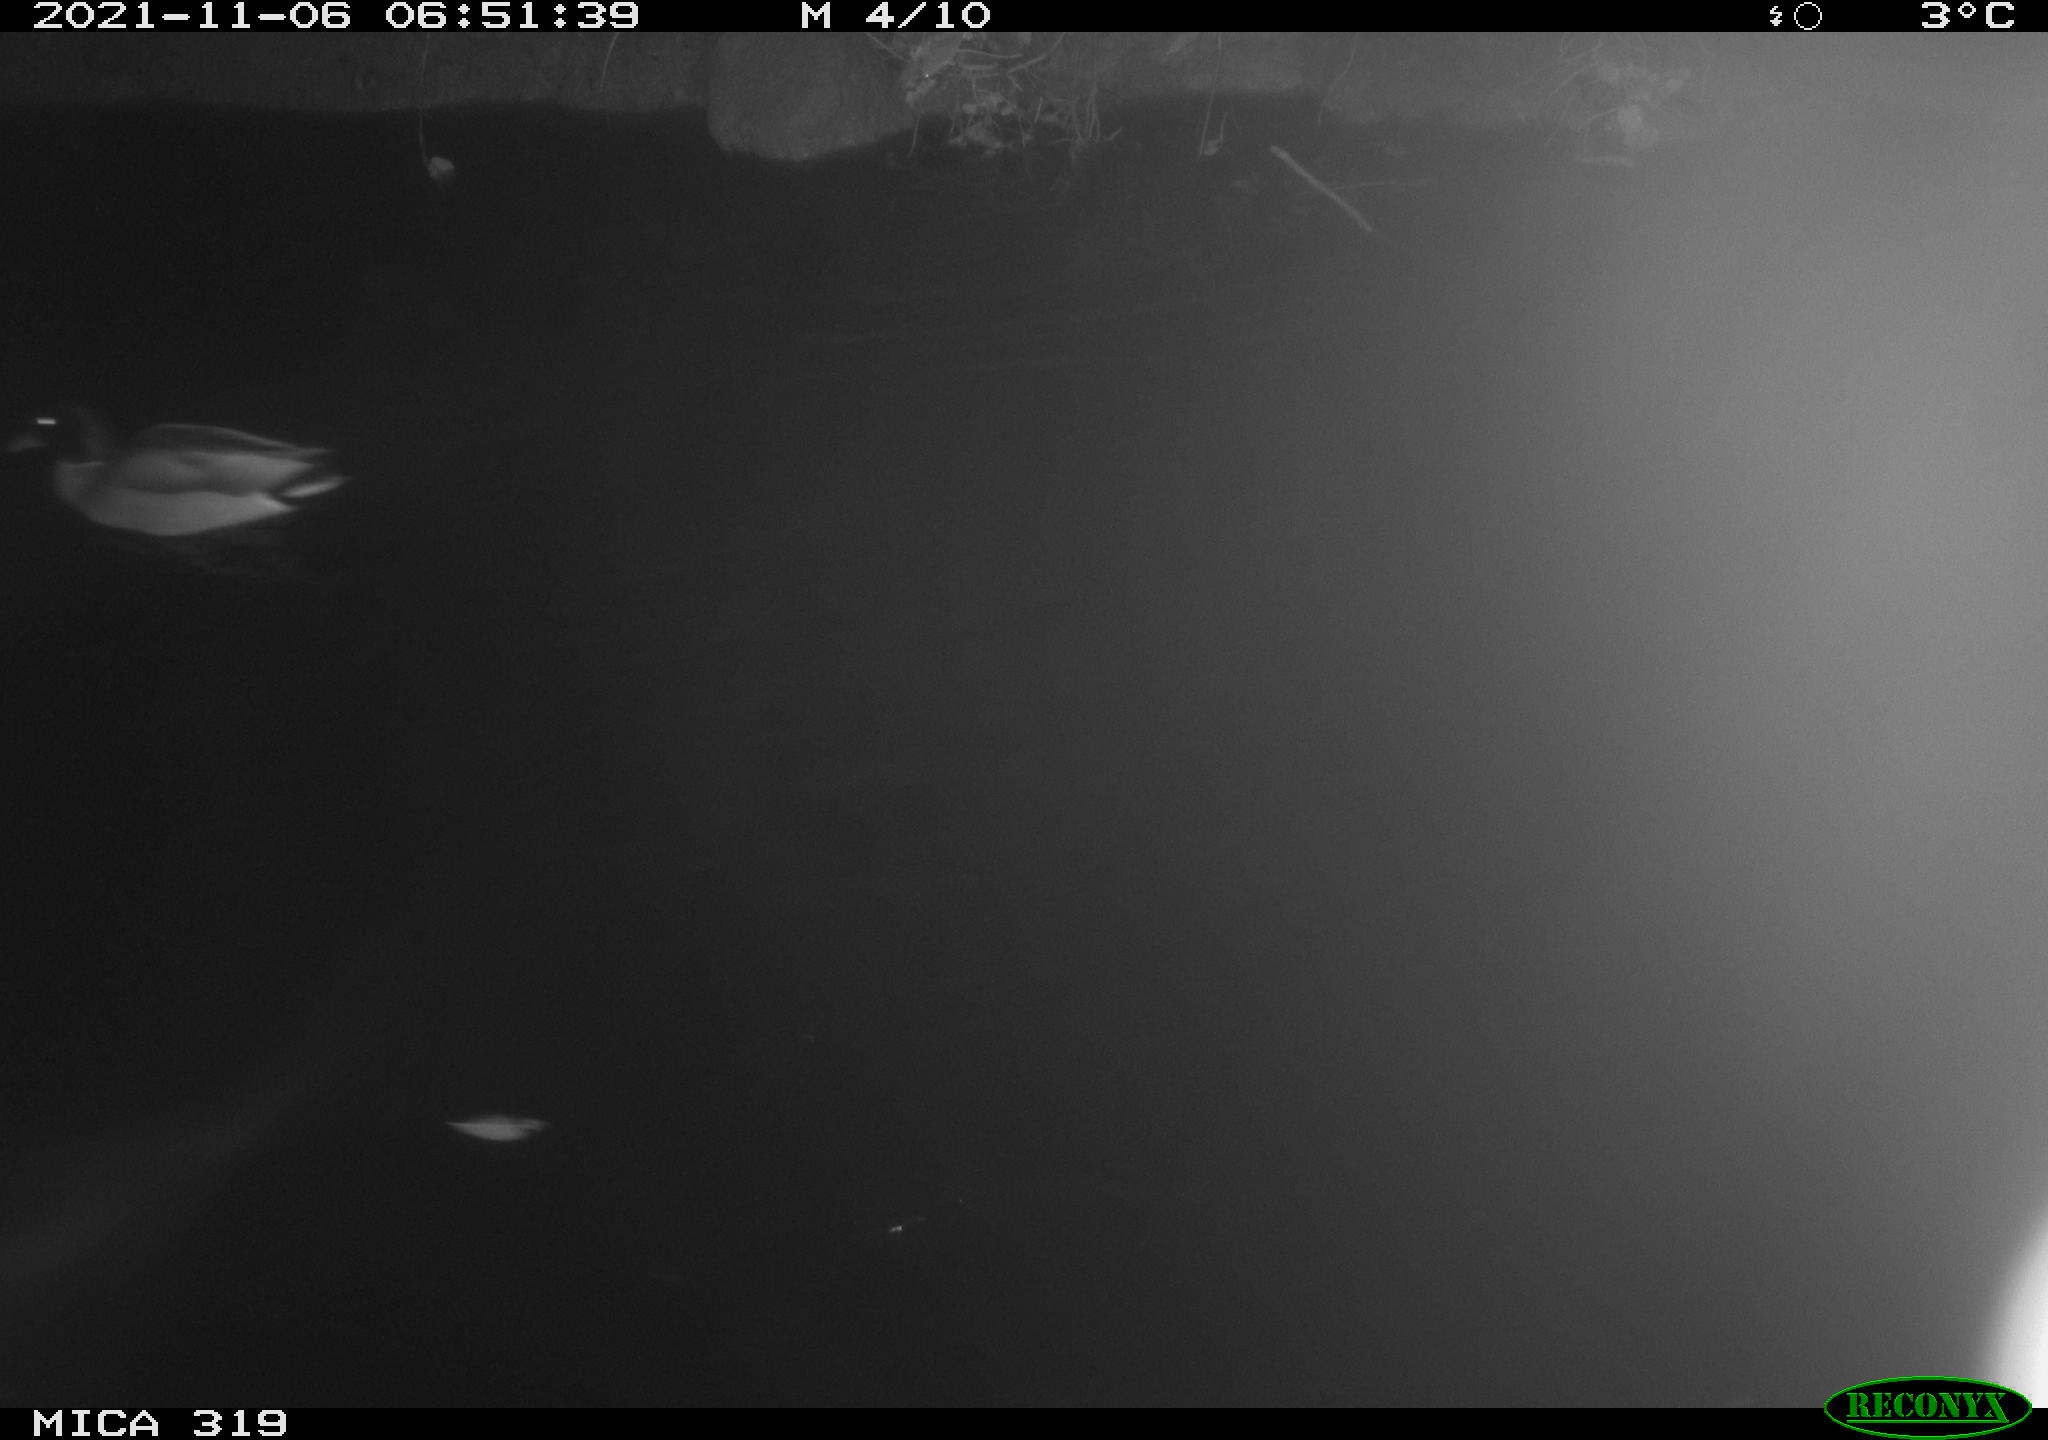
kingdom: Animalia
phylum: Chordata
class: Aves
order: Anseriformes
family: Anatidae
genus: Anas
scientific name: Anas platyrhynchos
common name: Mallard
